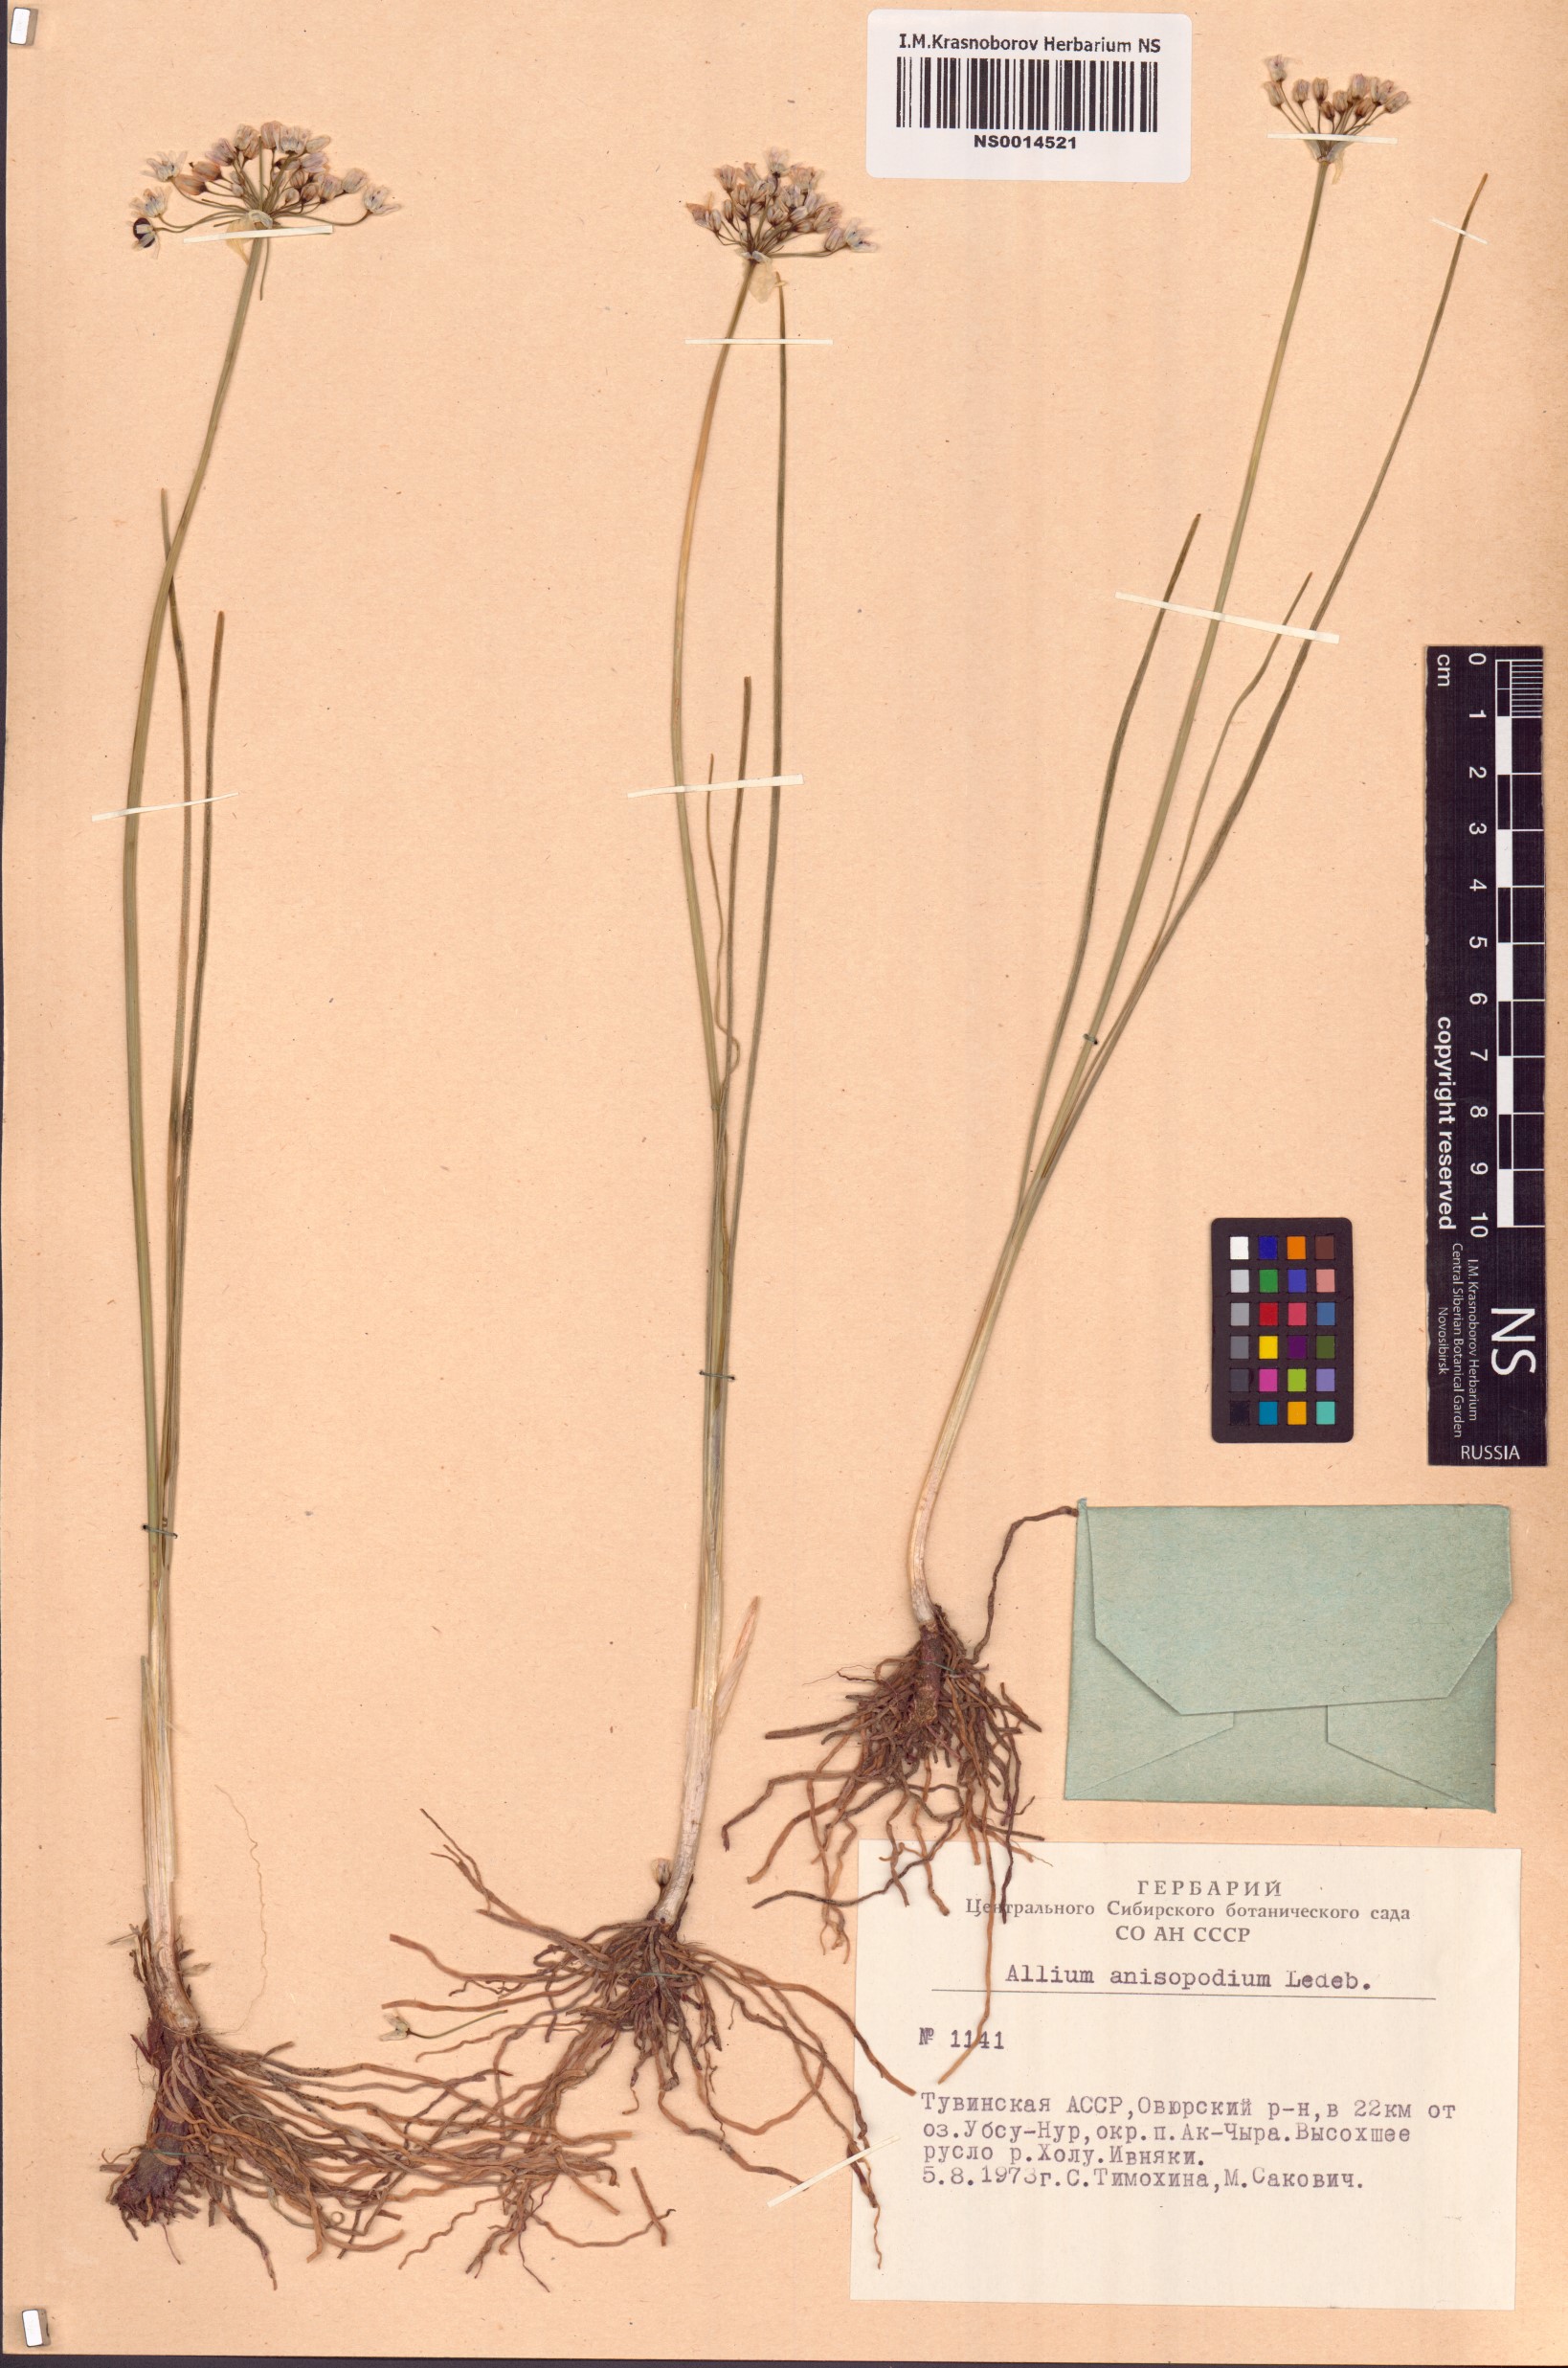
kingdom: Plantae
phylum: Tracheophyta
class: Liliopsida
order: Asparagales
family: Amaryllidaceae
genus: Allium
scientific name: Allium anisopodium
